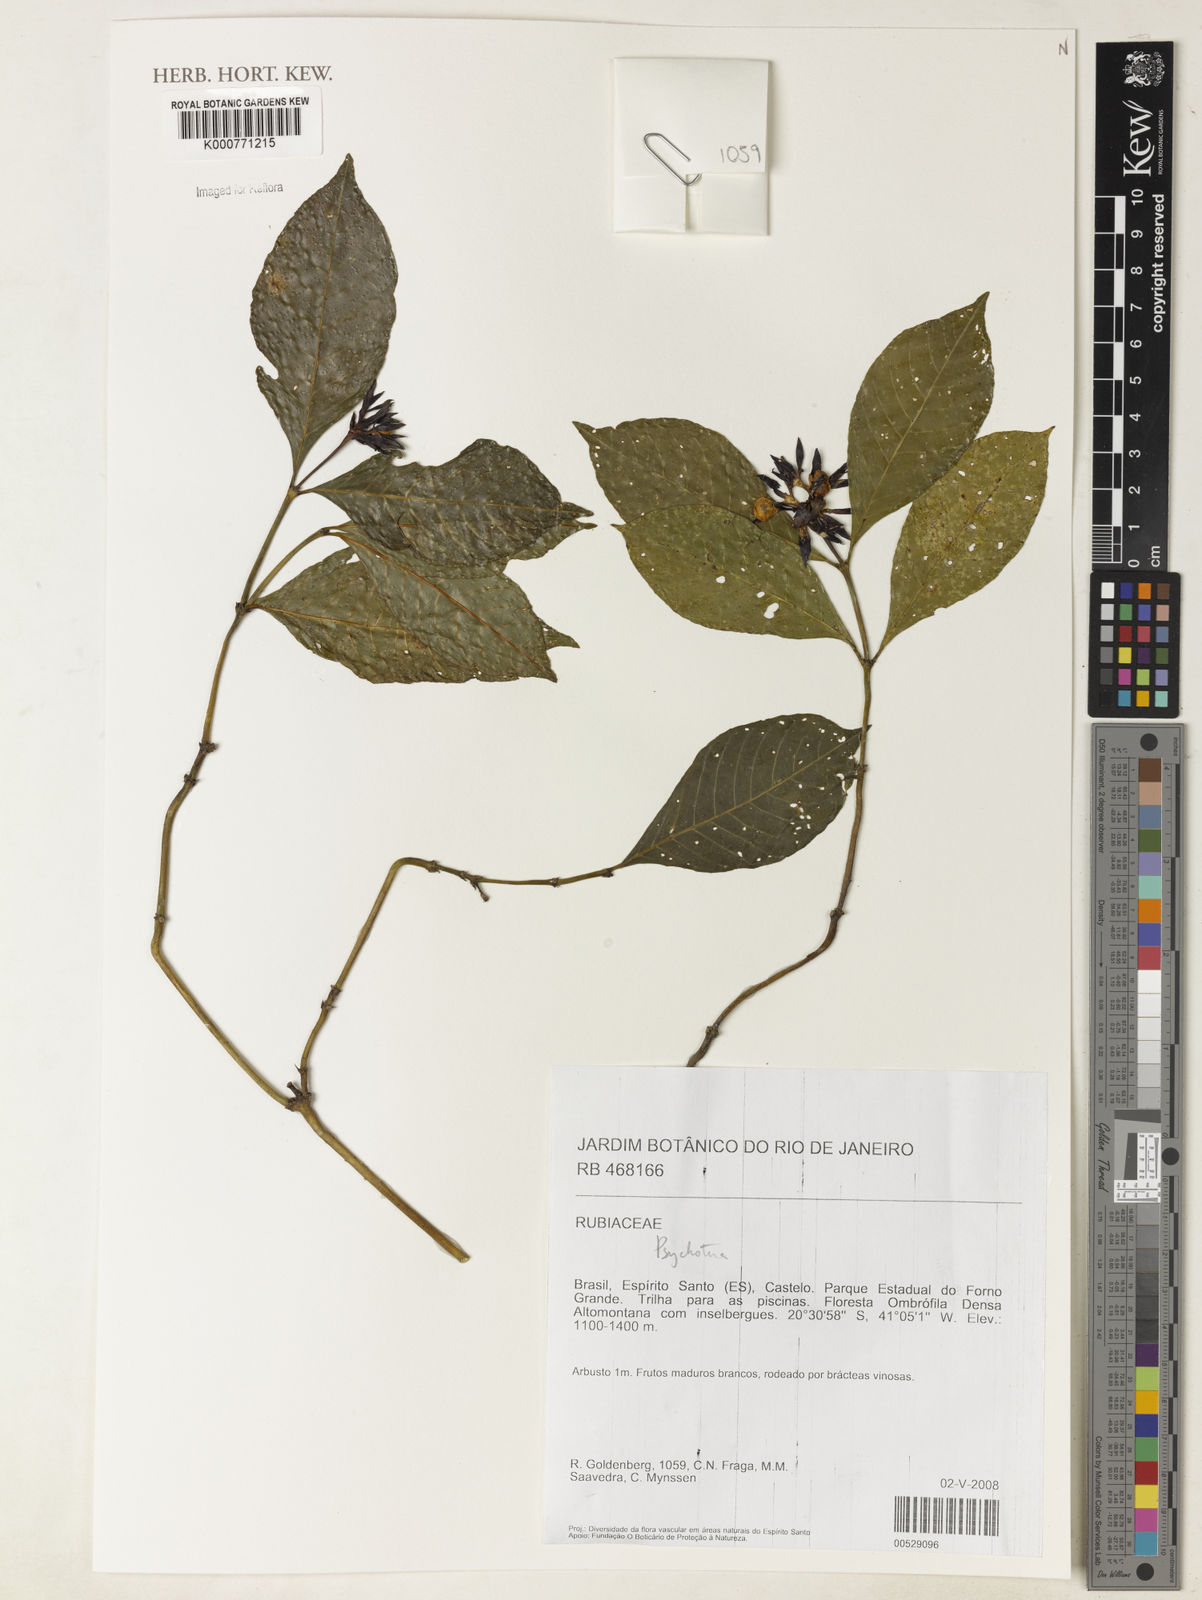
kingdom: Plantae
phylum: Tracheophyta
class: Magnoliopsida
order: Gentianales
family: Rubiaceae
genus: Psychotria
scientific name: Psychotria
